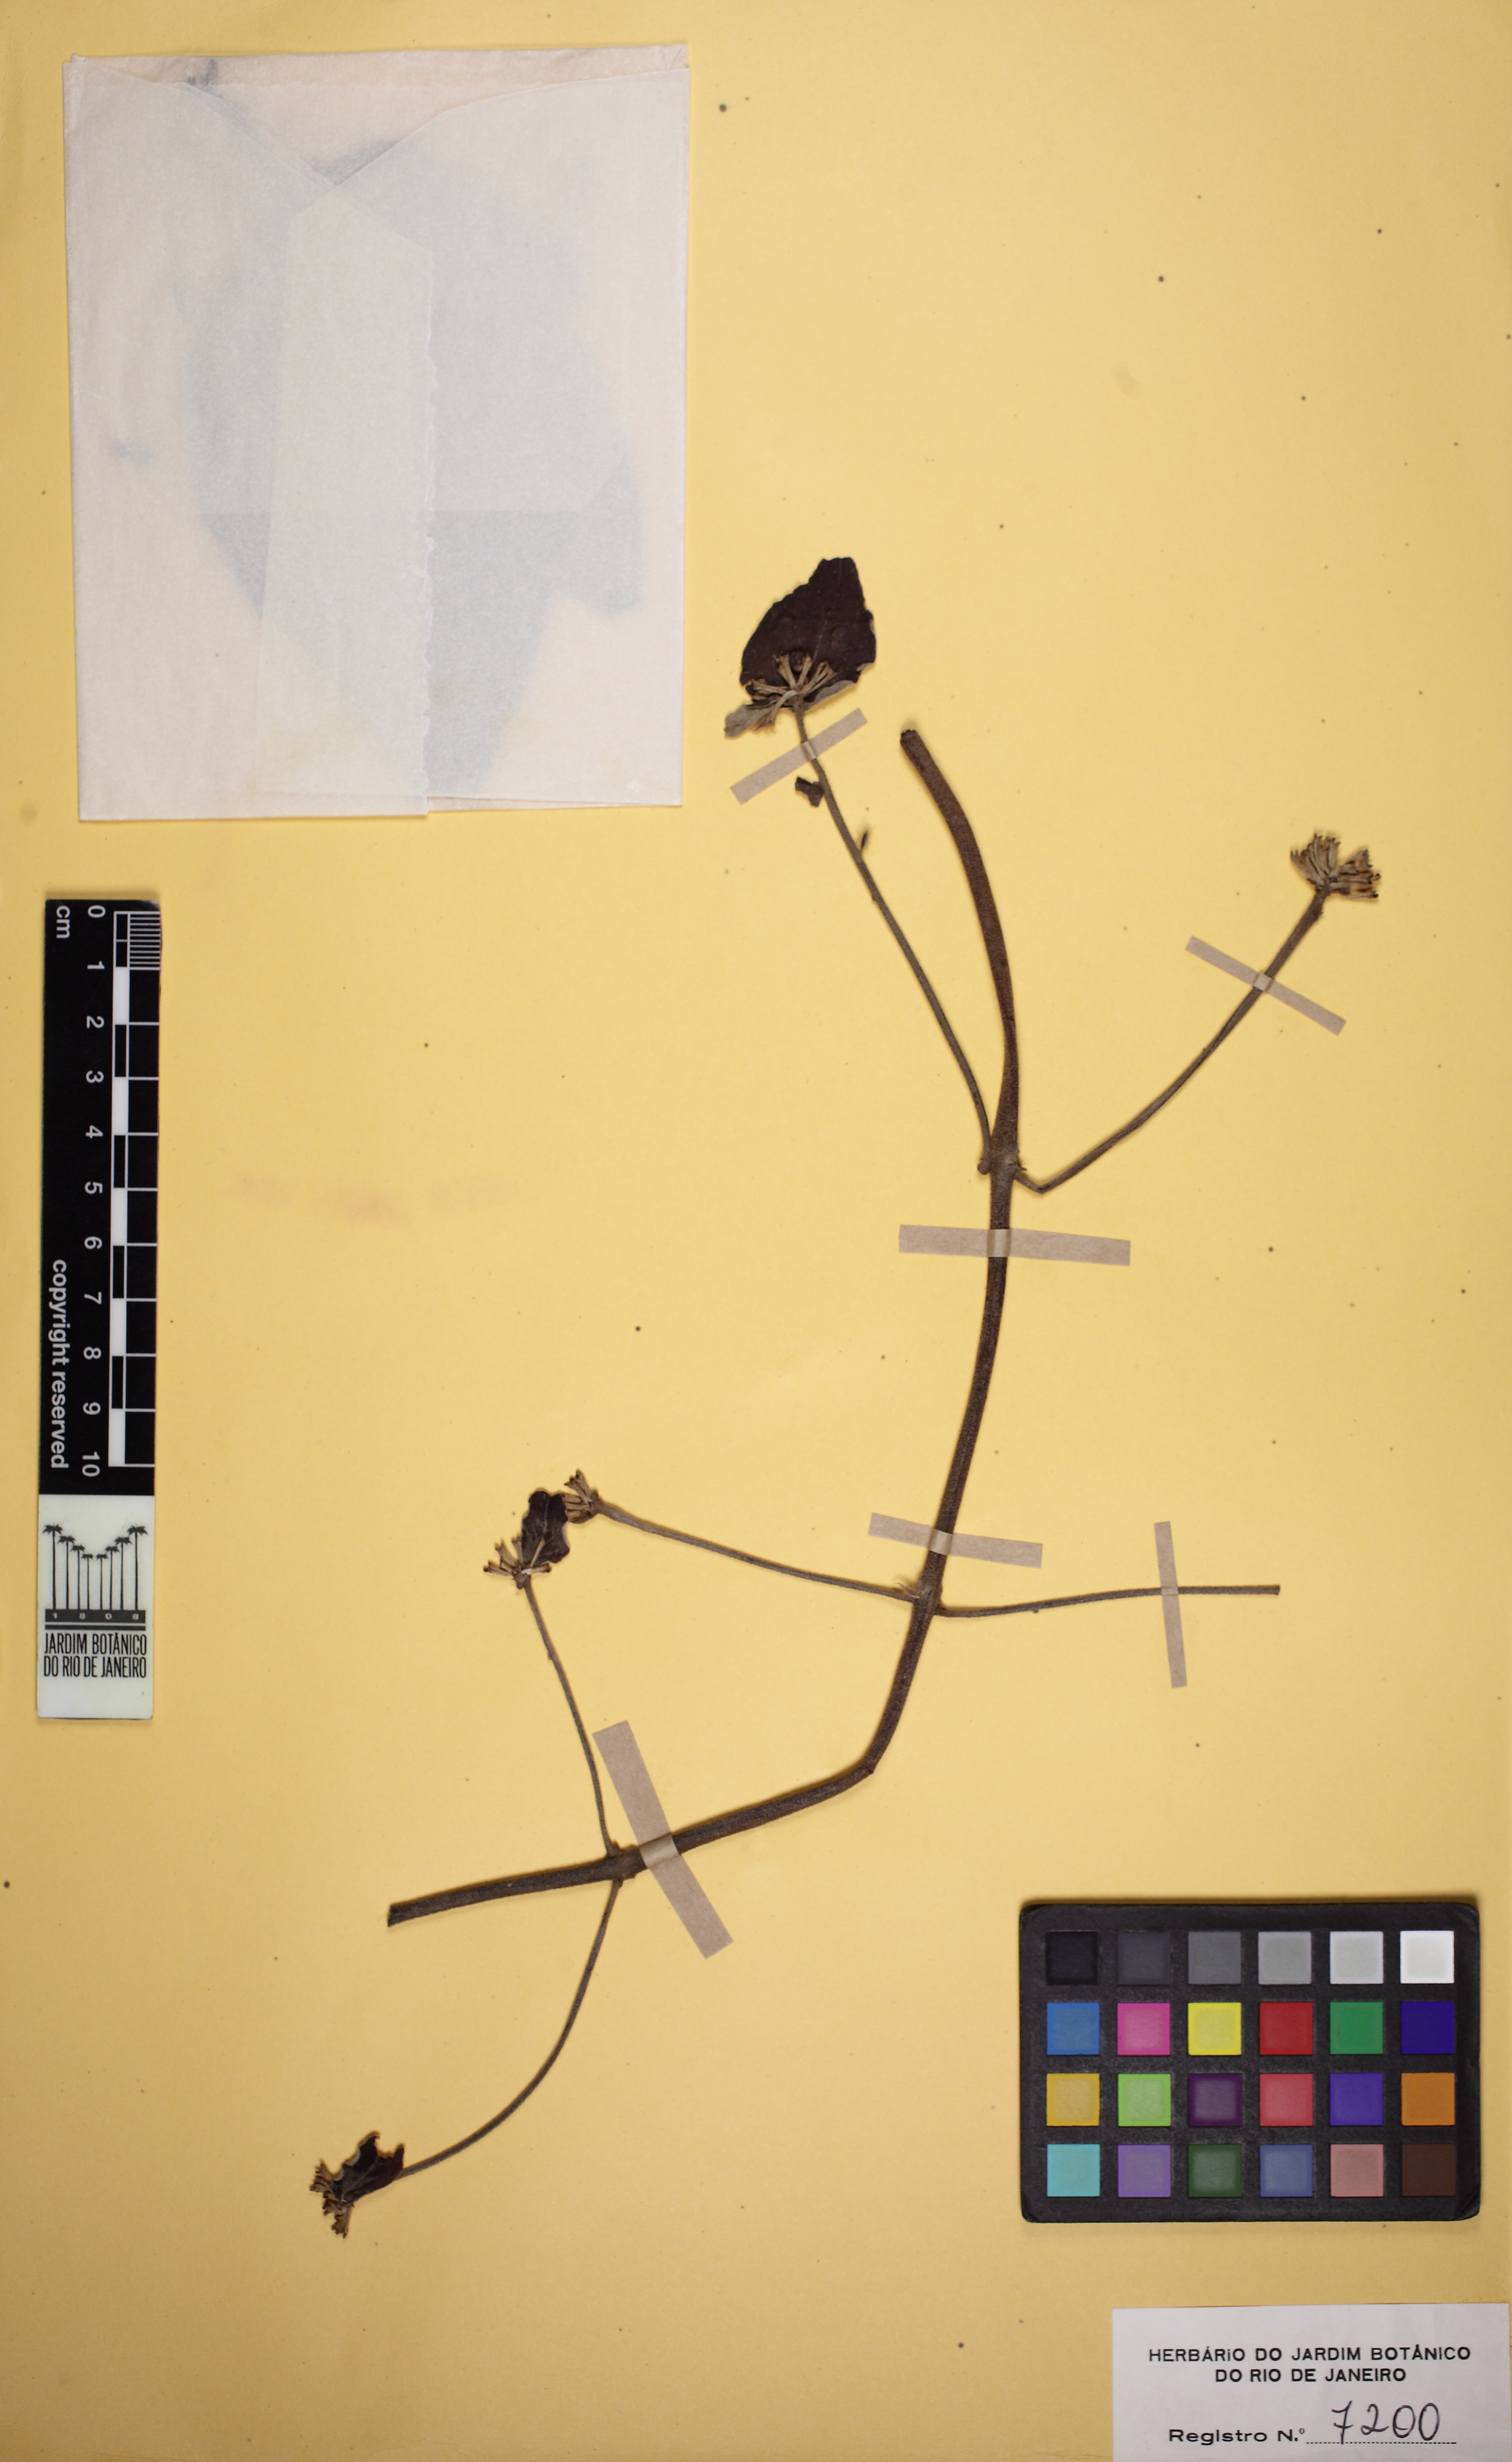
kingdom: Plantae
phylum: Tracheophyta
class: Magnoliopsida
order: Malpighiales
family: Malpighiaceae
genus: Stigmaphyllon
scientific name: Stigmaphyllon tomentosum
